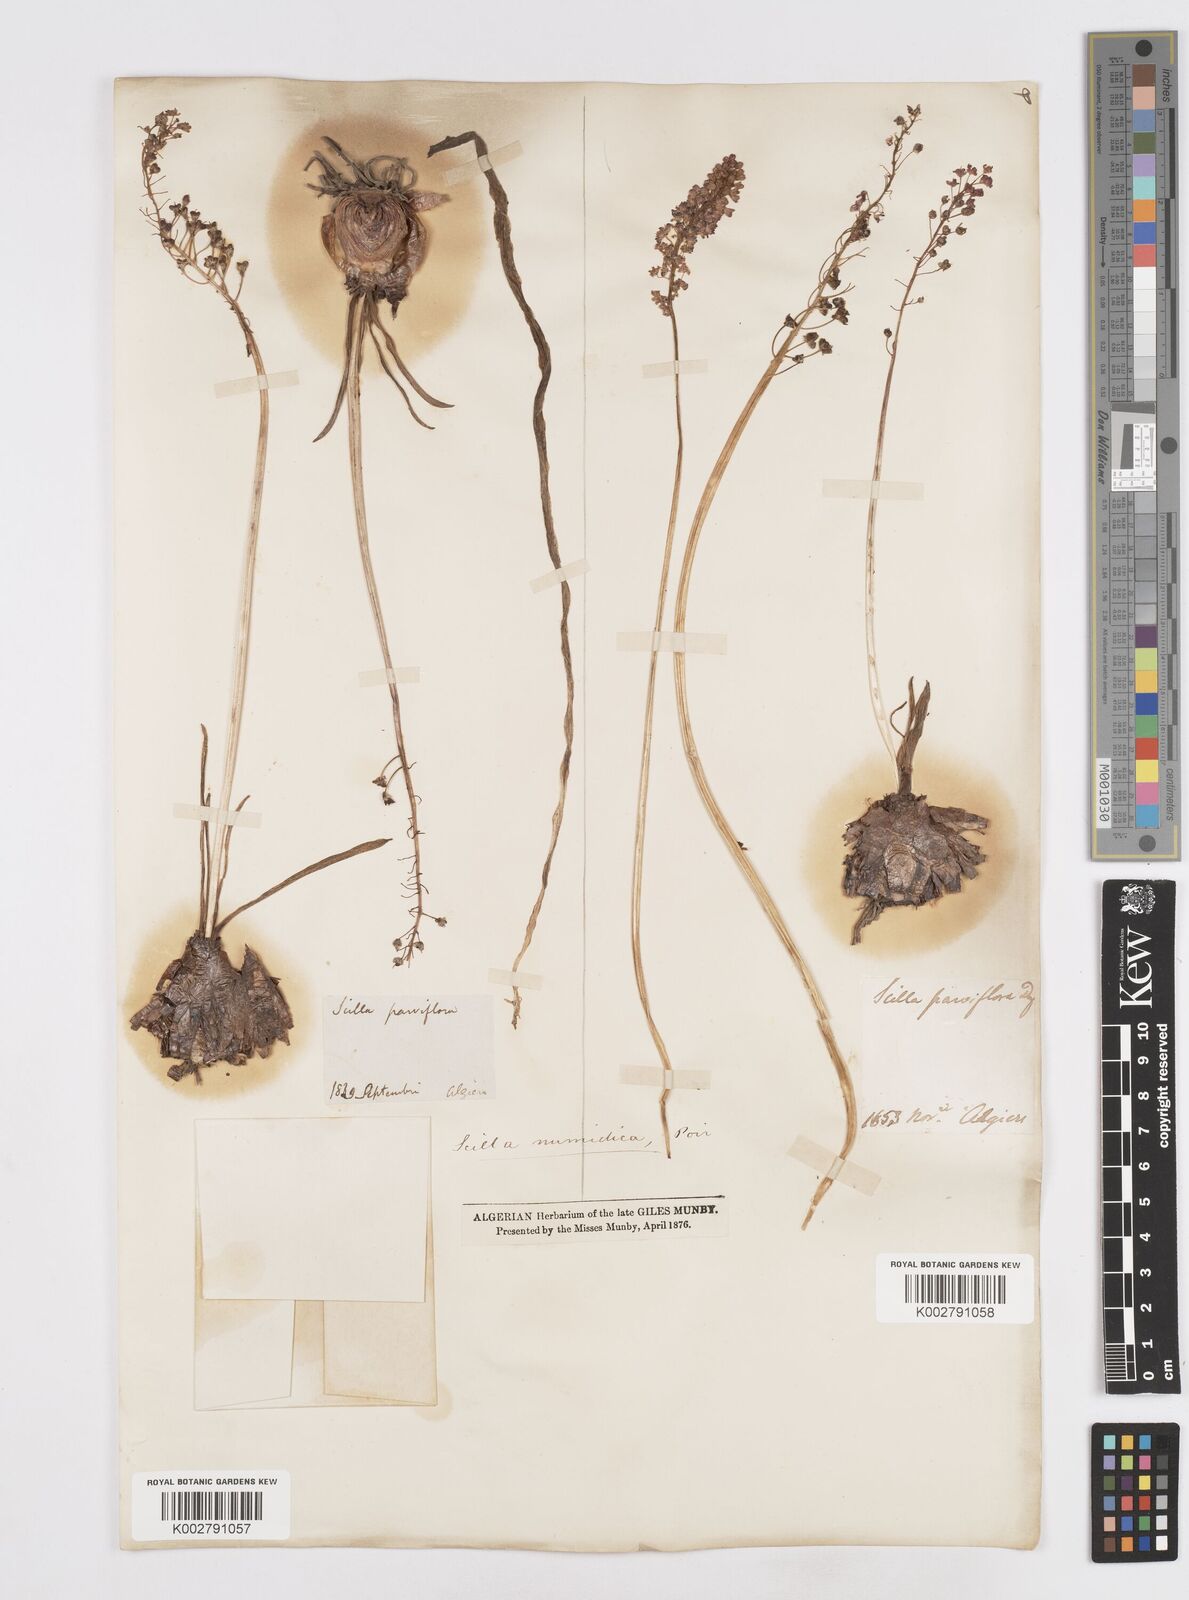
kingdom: Plantae
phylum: Tracheophyta
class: Liliopsida
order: Asparagales
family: Asparagaceae
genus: Barnardia
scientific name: Barnardia numidica
